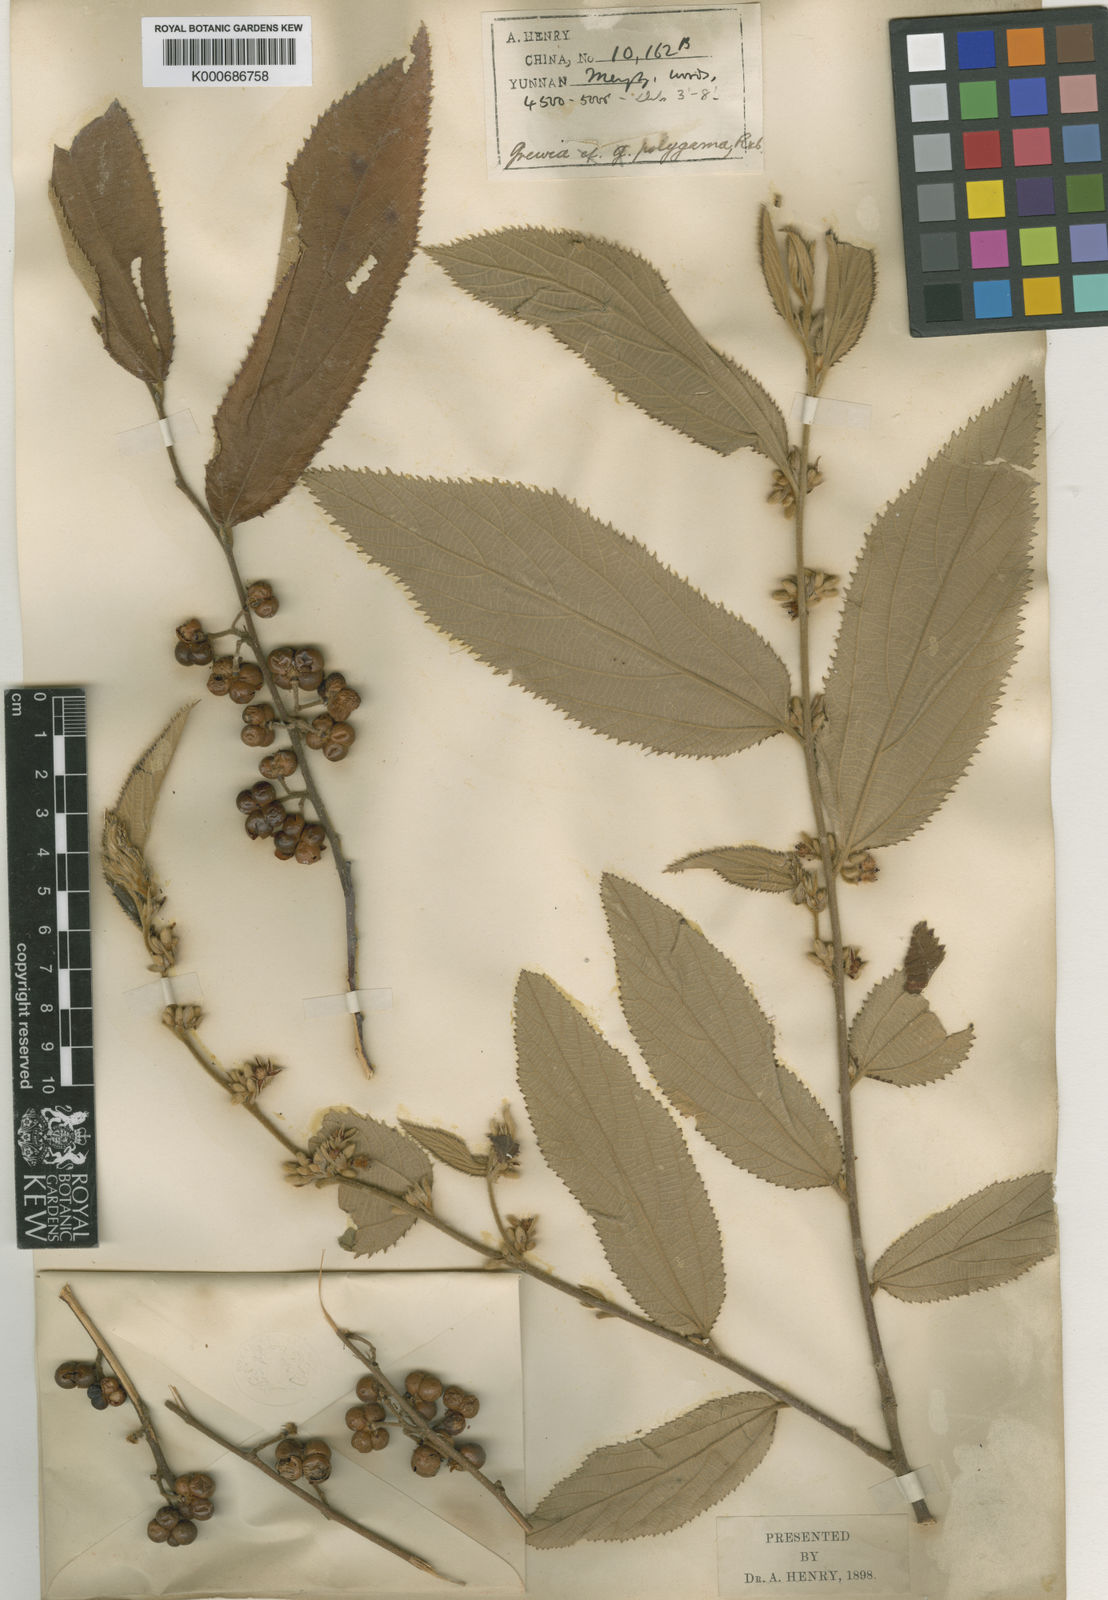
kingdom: Plantae
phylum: Tracheophyta
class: Magnoliopsida
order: Malvales
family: Malvaceae
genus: Grewia
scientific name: Grewia cuspidatoserrata
